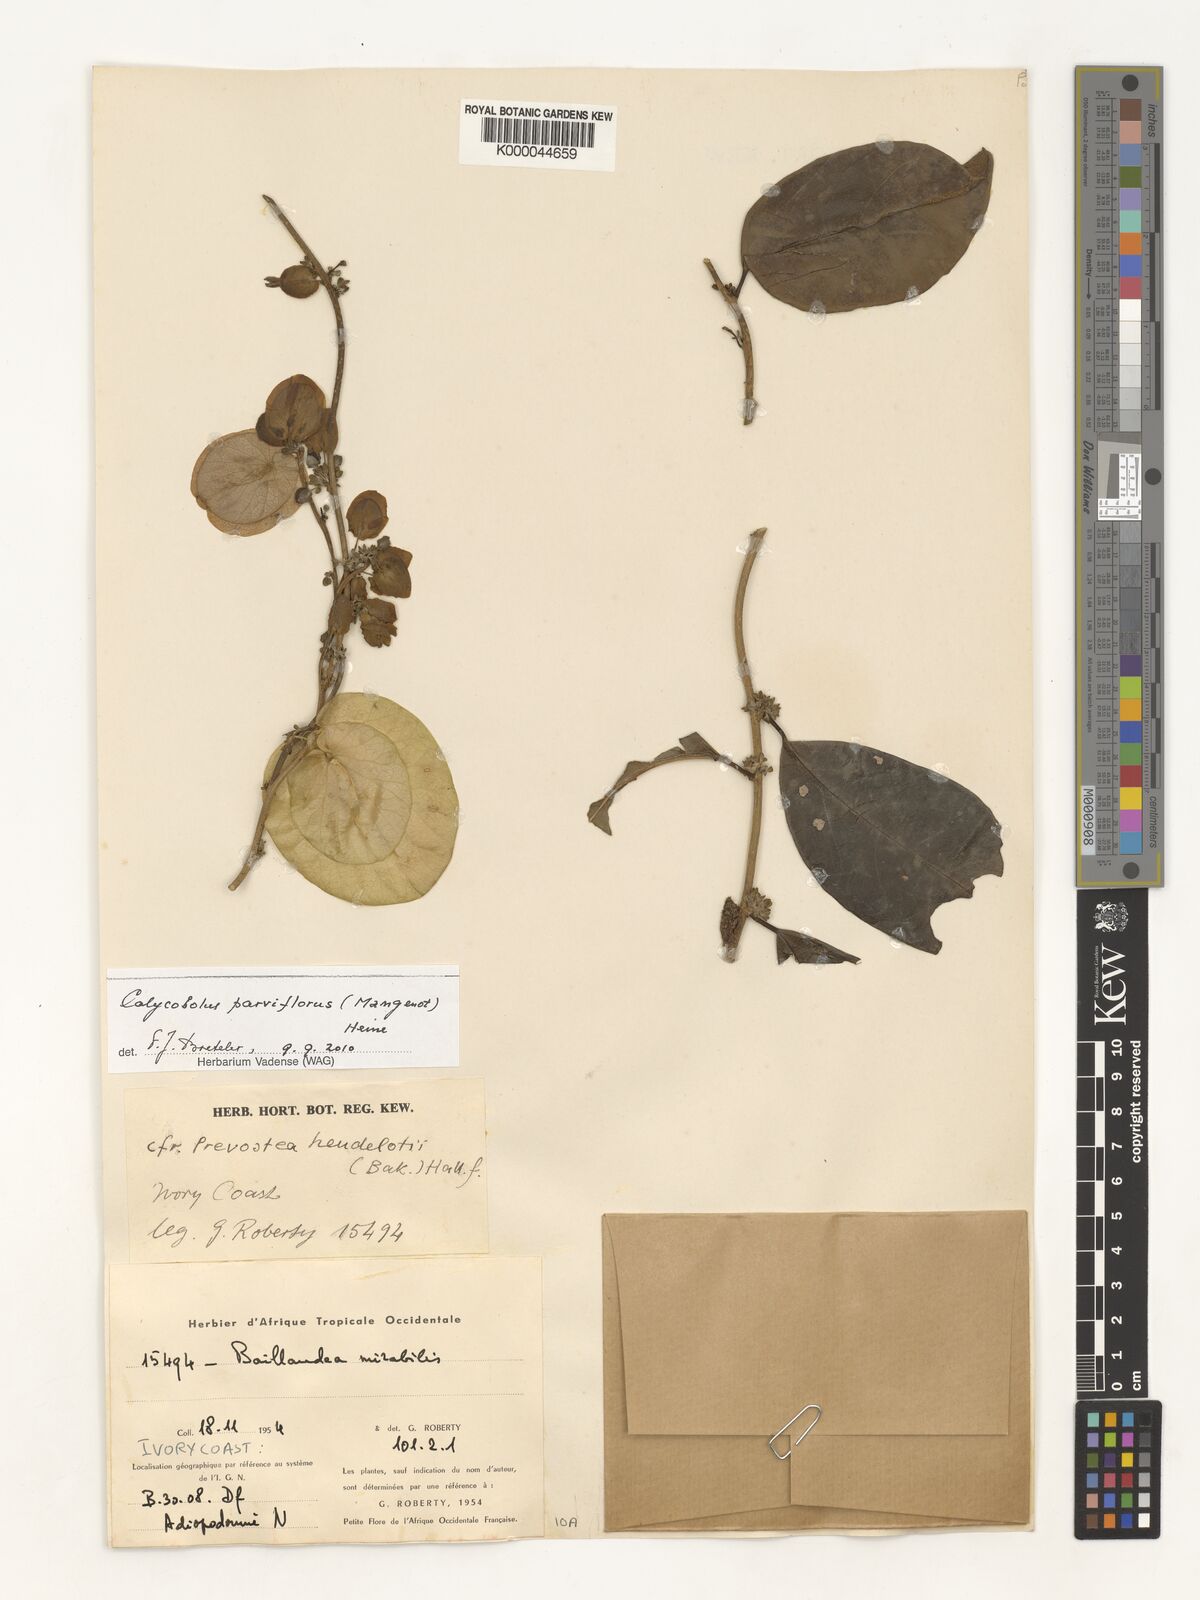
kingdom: Plantae
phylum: Tracheophyta
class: Magnoliopsida
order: Solanales
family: Convolvulaceae
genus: Calycobolus
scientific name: Calycobolus parviflorus
